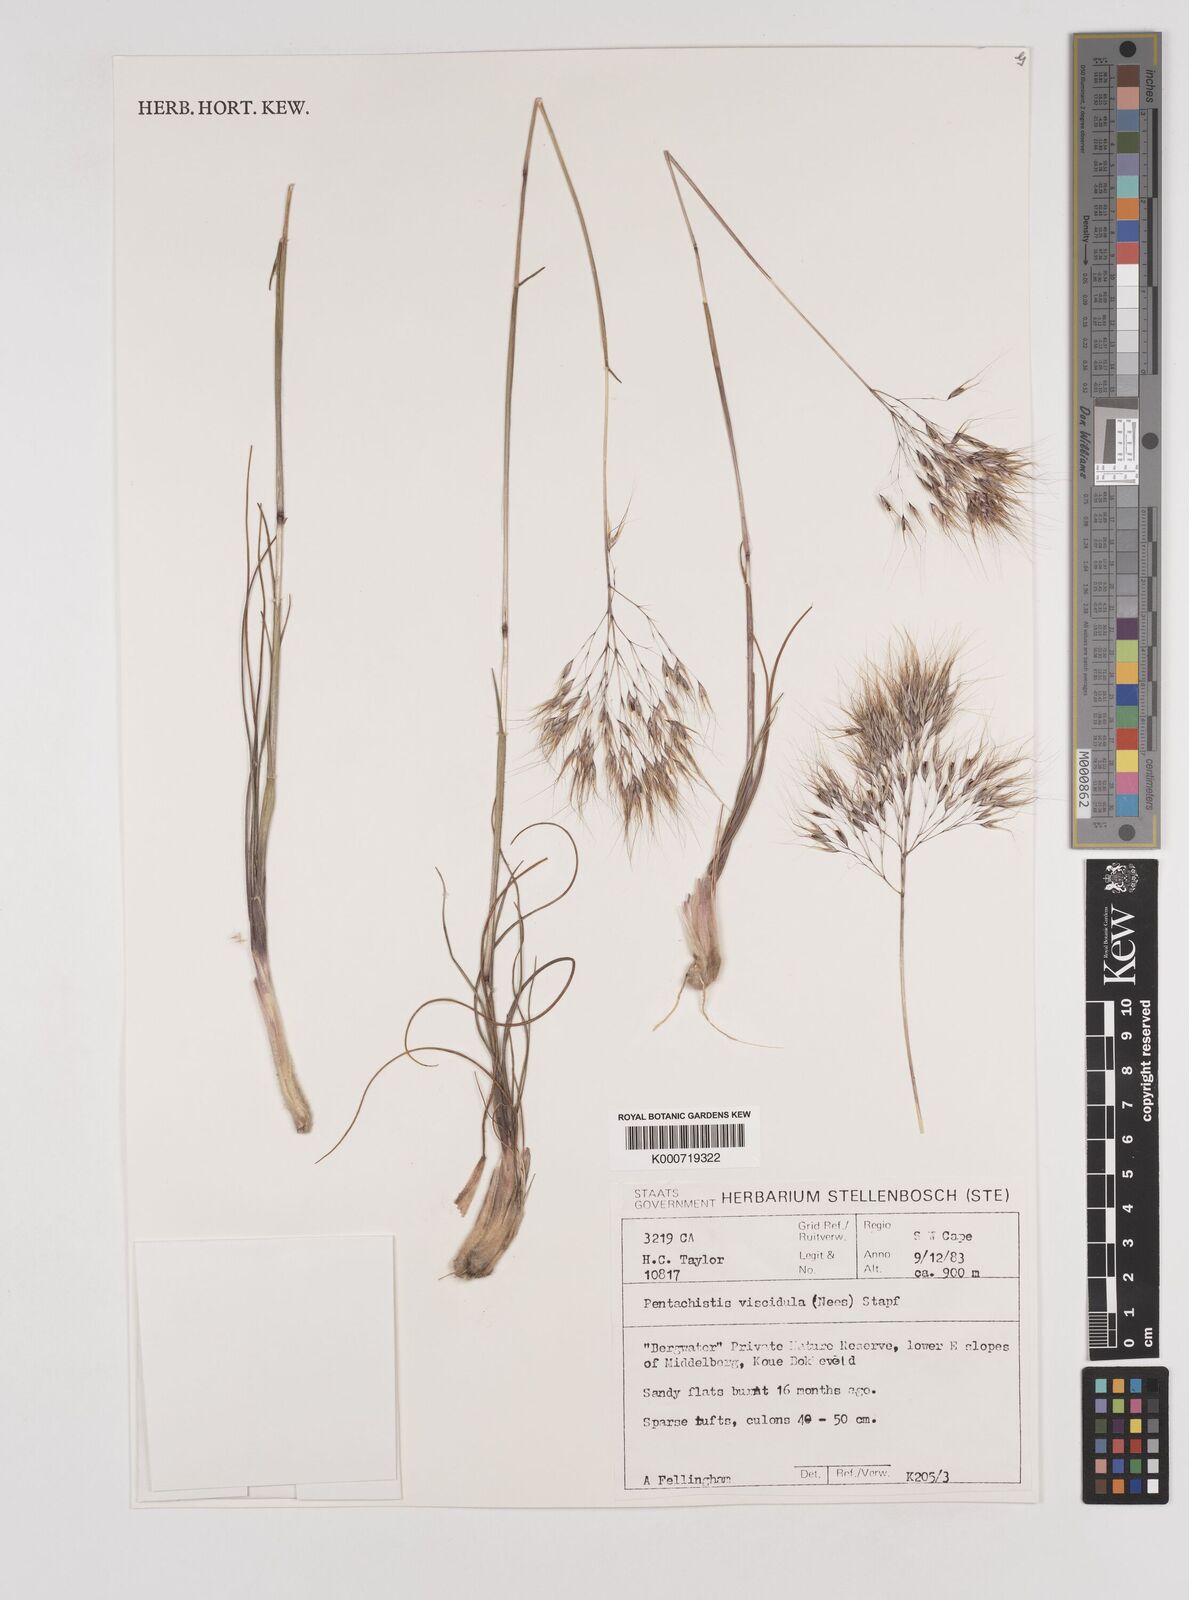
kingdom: Plantae
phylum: Tracheophyta
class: Liliopsida
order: Poales
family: Poaceae
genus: Pentameris
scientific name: Pentameris viscidula
